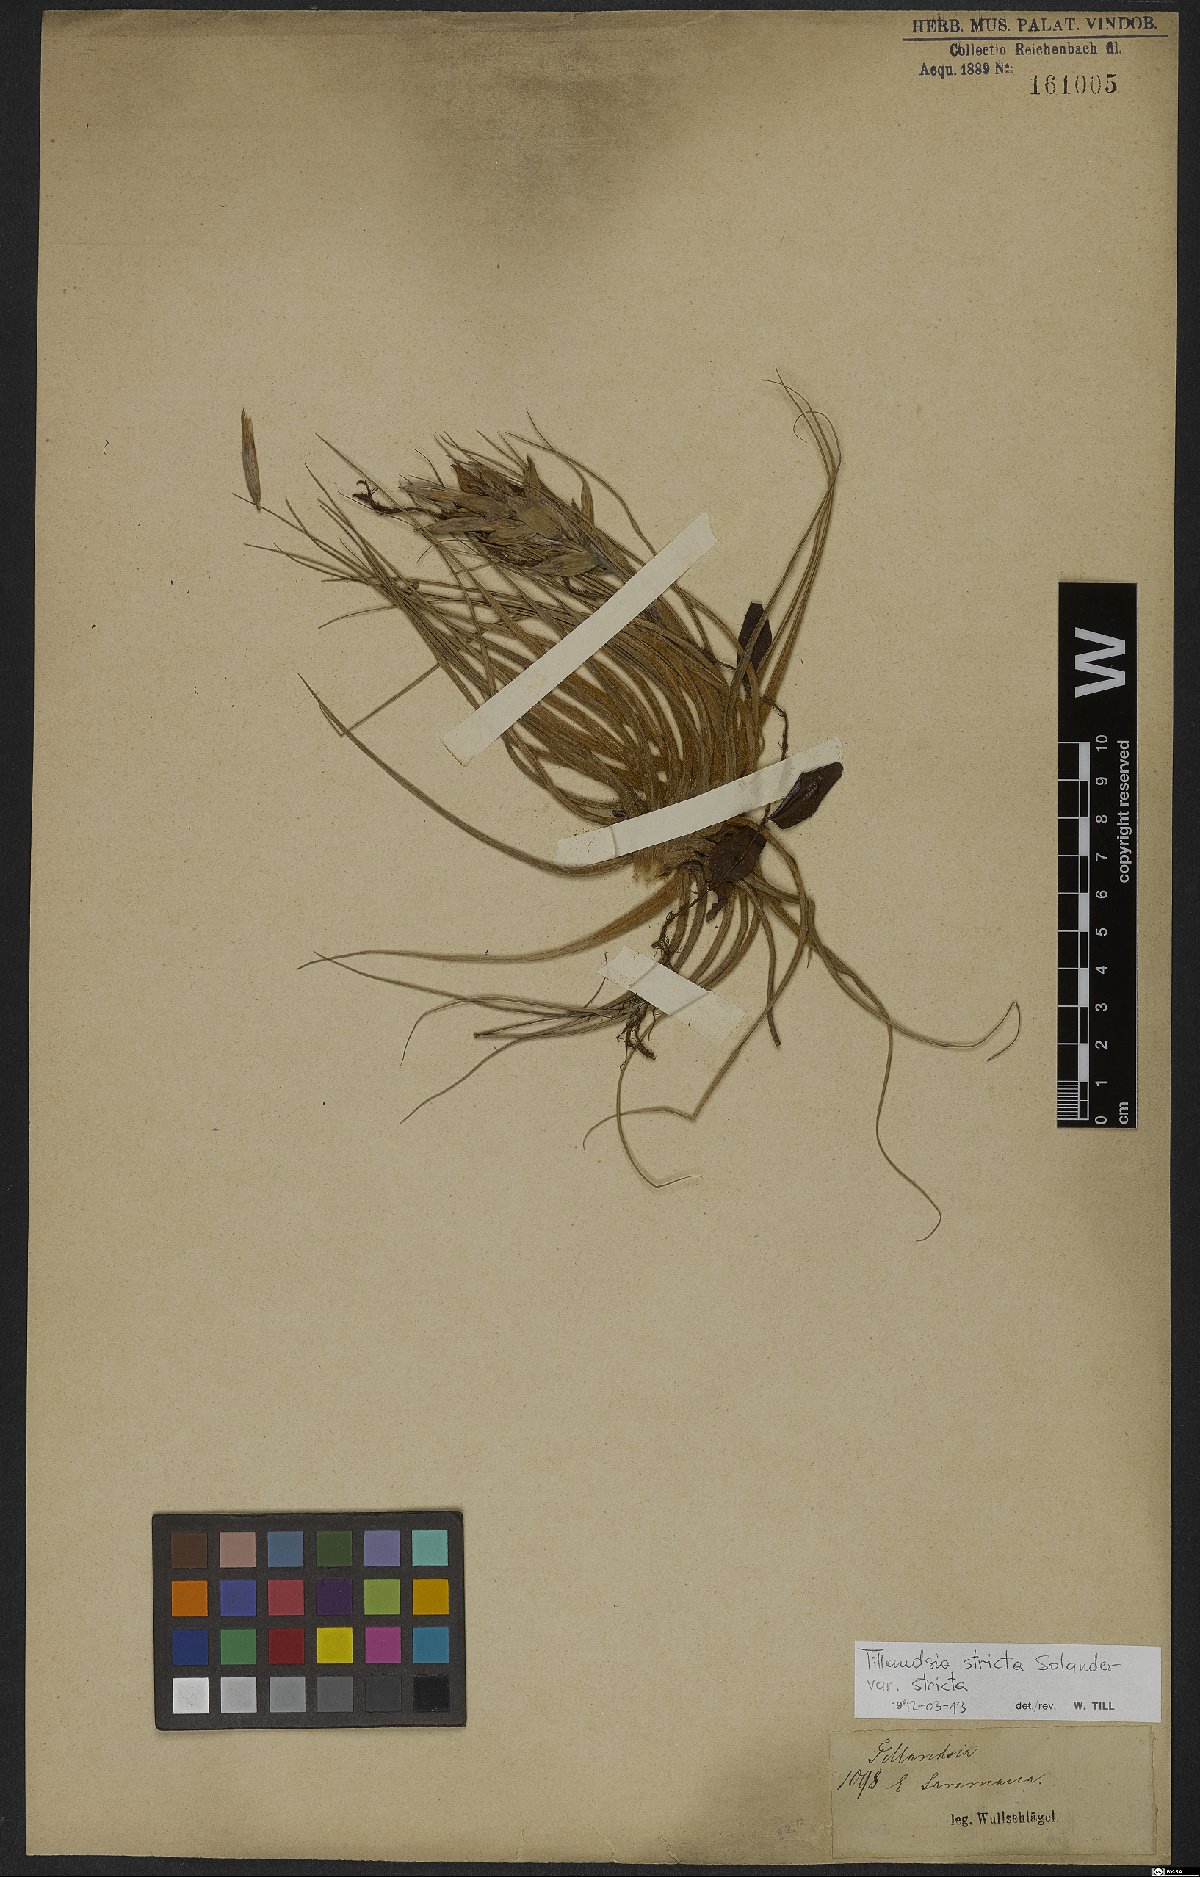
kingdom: Plantae
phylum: Tracheophyta
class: Liliopsida
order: Poales
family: Bromeliaceae
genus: Tillandsia
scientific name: Tillandsia stricta
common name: Airplant
